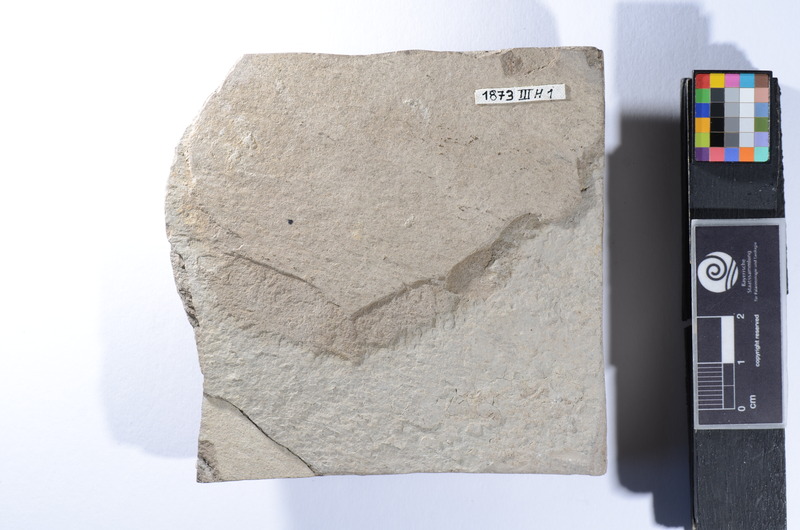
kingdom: Animalia
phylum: Chordata
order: Perciformes
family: Serranidae
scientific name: Serranidae
